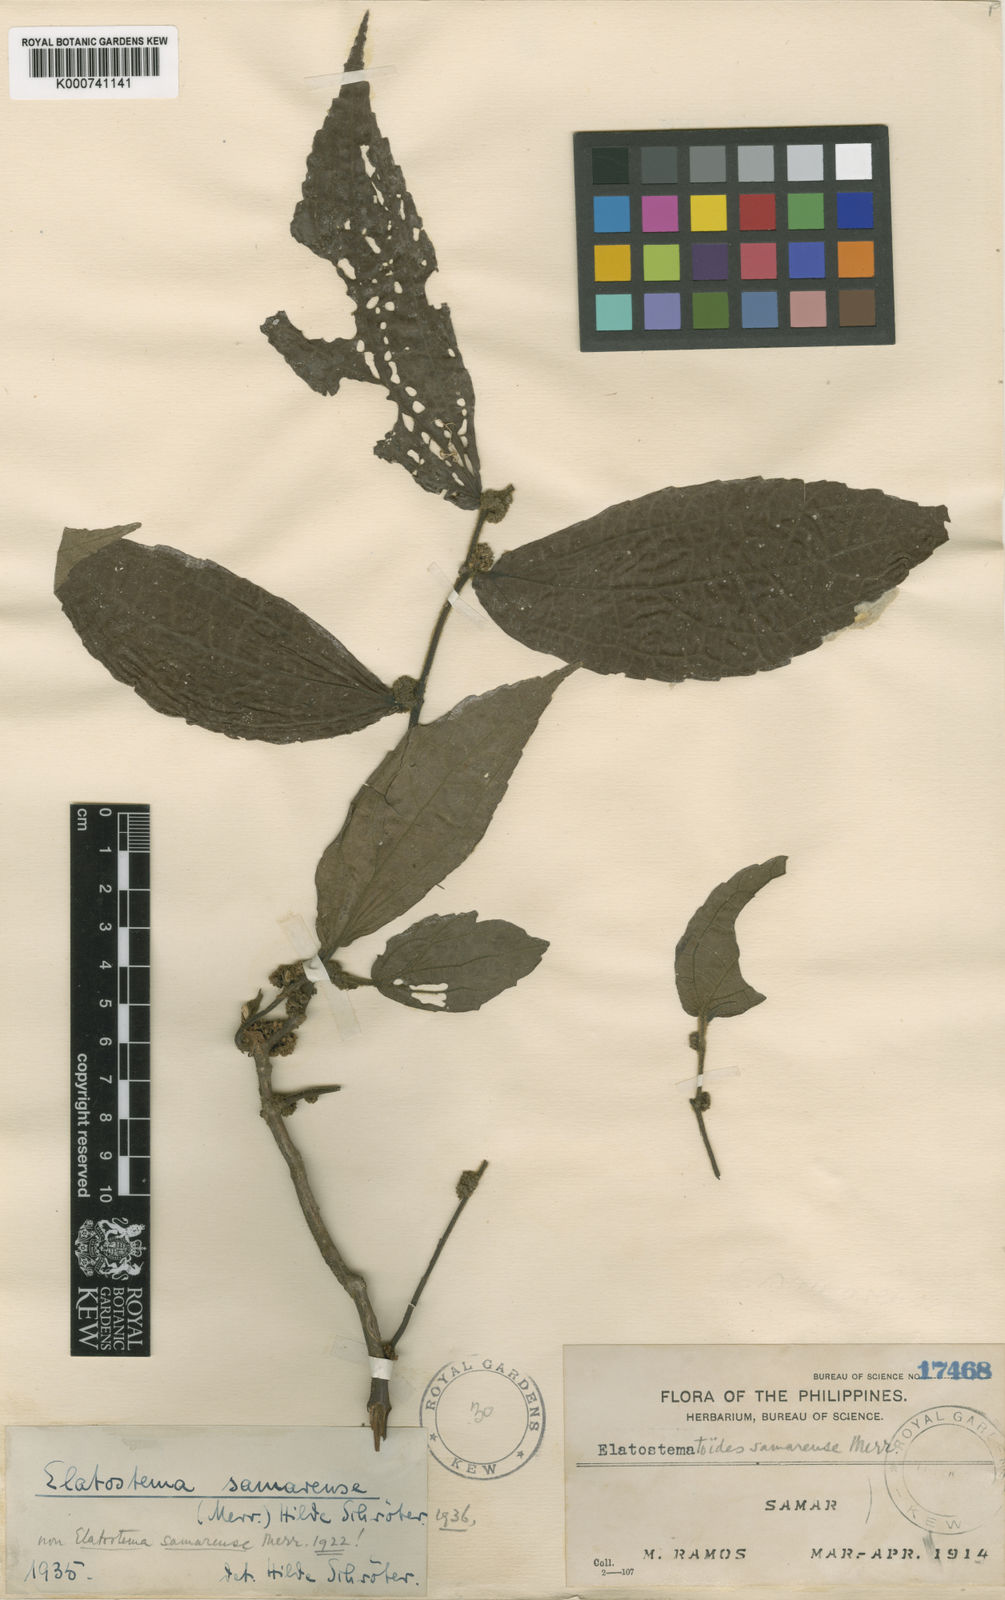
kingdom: Plantae
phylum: Tracheophyta
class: Magnoliopsida
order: Rosales
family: Urticaceae
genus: Elatostematoides
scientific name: Elatostematoides samarense
